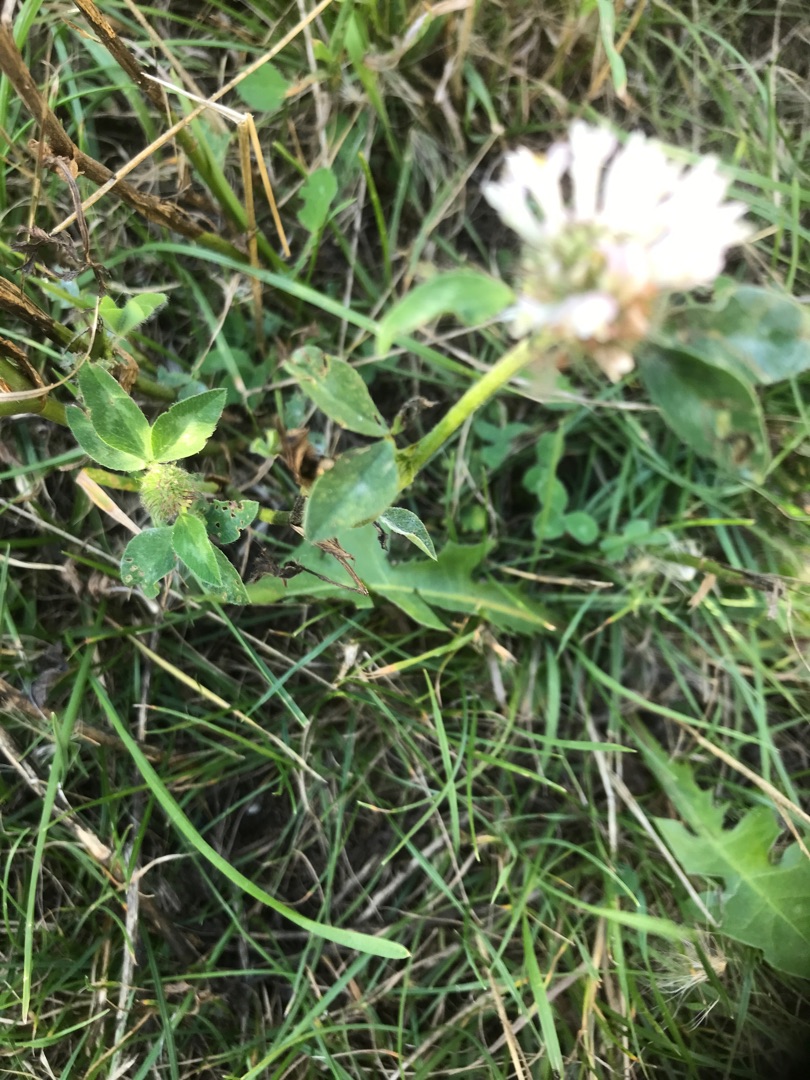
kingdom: Plantae
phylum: Tracheophyta
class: Magnoliopsida
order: Fabales
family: Fabaceae
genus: Trifolium
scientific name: Trifolium pratense
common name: Rød-kløver
